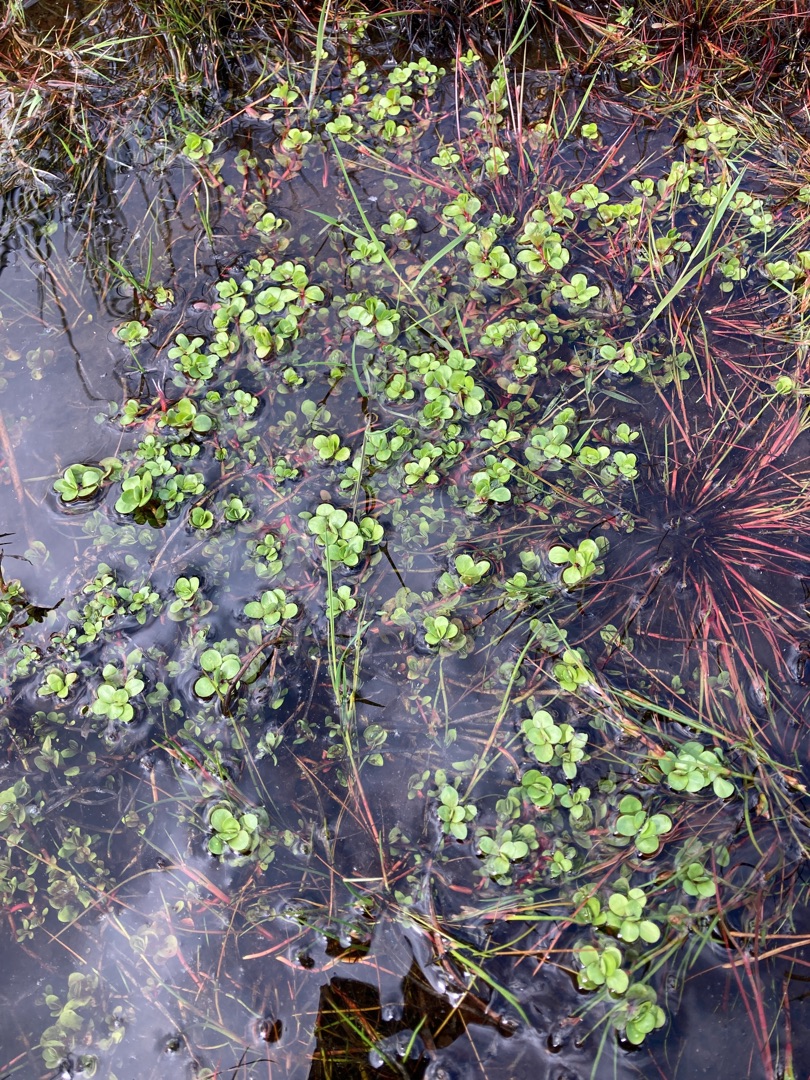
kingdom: Plantae
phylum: Tracheophyta
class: Magnoliopsida
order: Myrtales
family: Lythraceae
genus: Lythrum
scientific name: Lythrum portula
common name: Vandportulak
